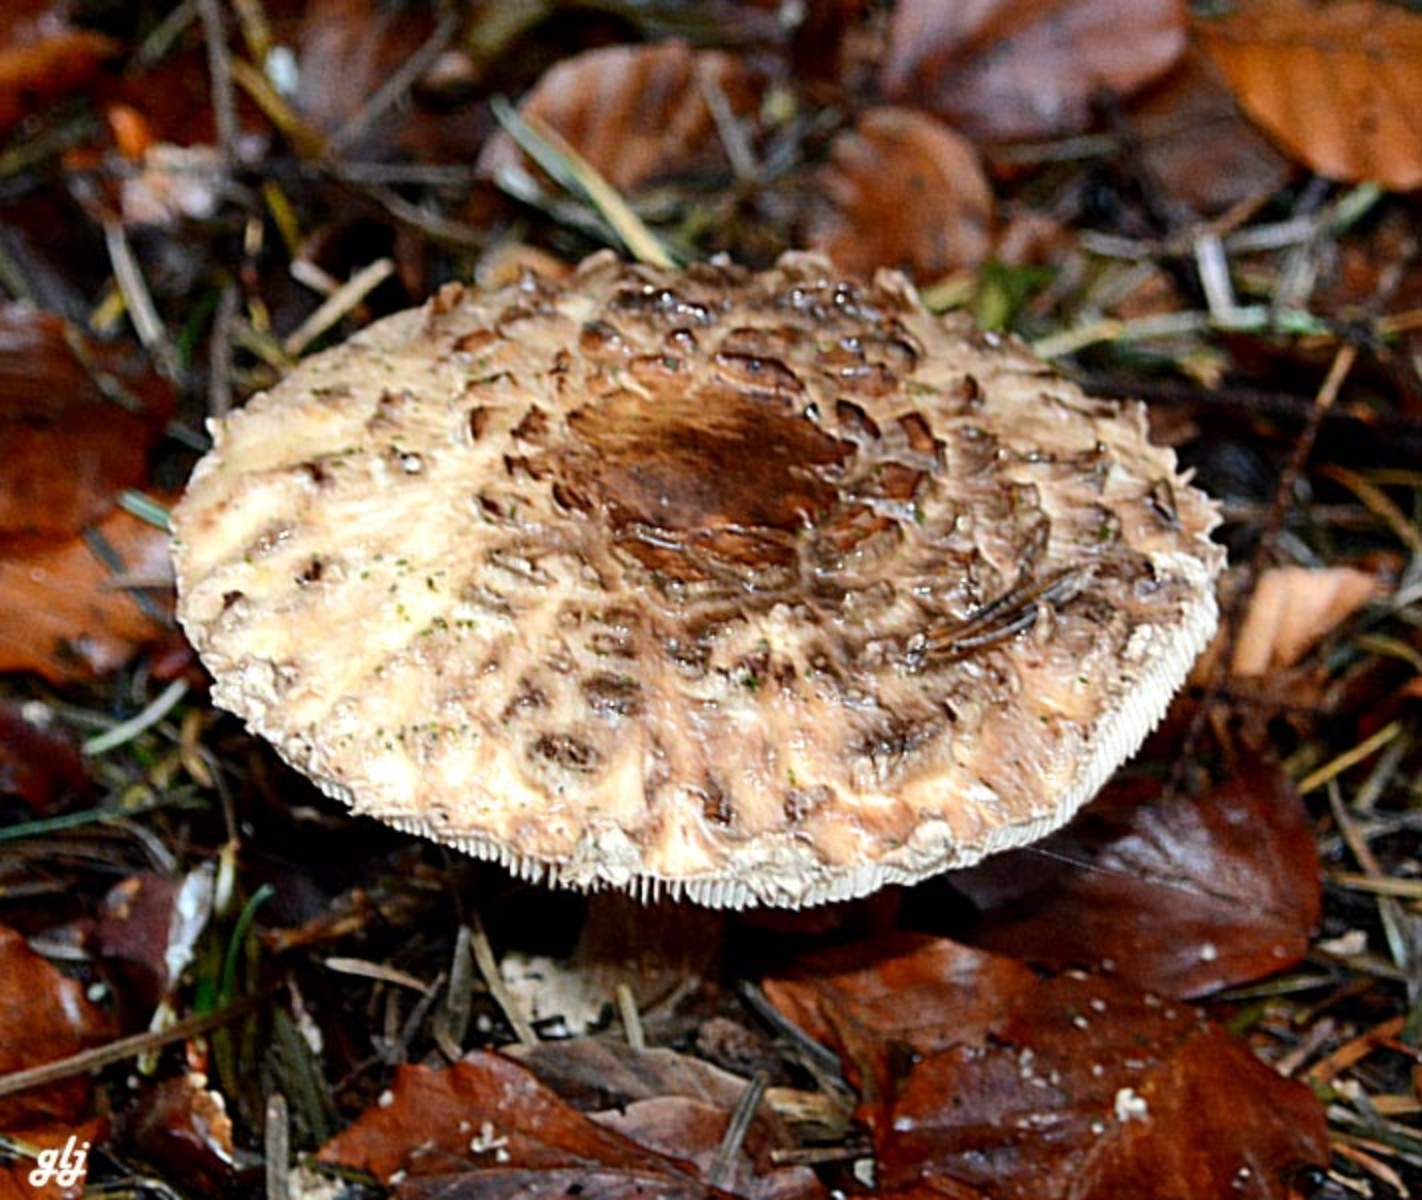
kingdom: Fungi
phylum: Basidiomycota
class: Agaricomycetes
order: Agaricales
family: Agaricaceae
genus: Chlorophyllum
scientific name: Chlorophyllum olivieri
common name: almindelig rabarberhat
